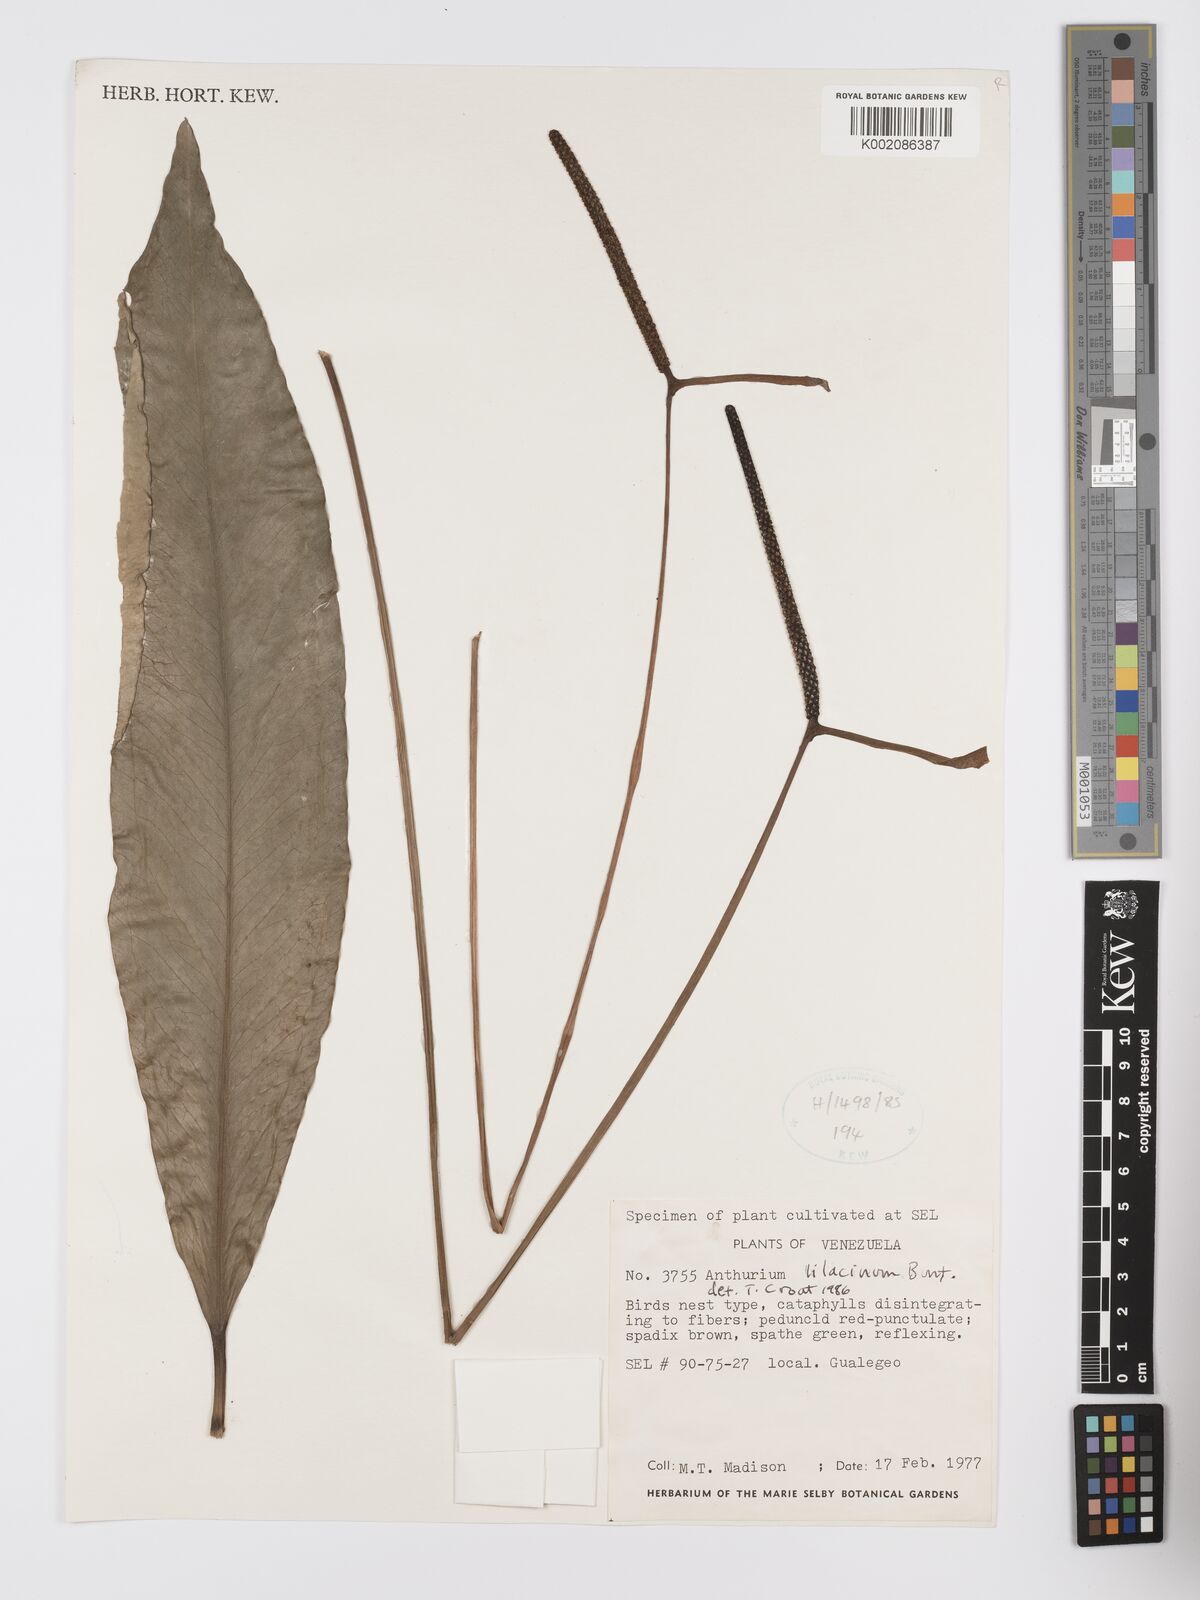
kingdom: Plantae
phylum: Tracheophyta
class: Liliopsida
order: Alismatales
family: Araceae
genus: Anthurium
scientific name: Anthurium lilacinum
